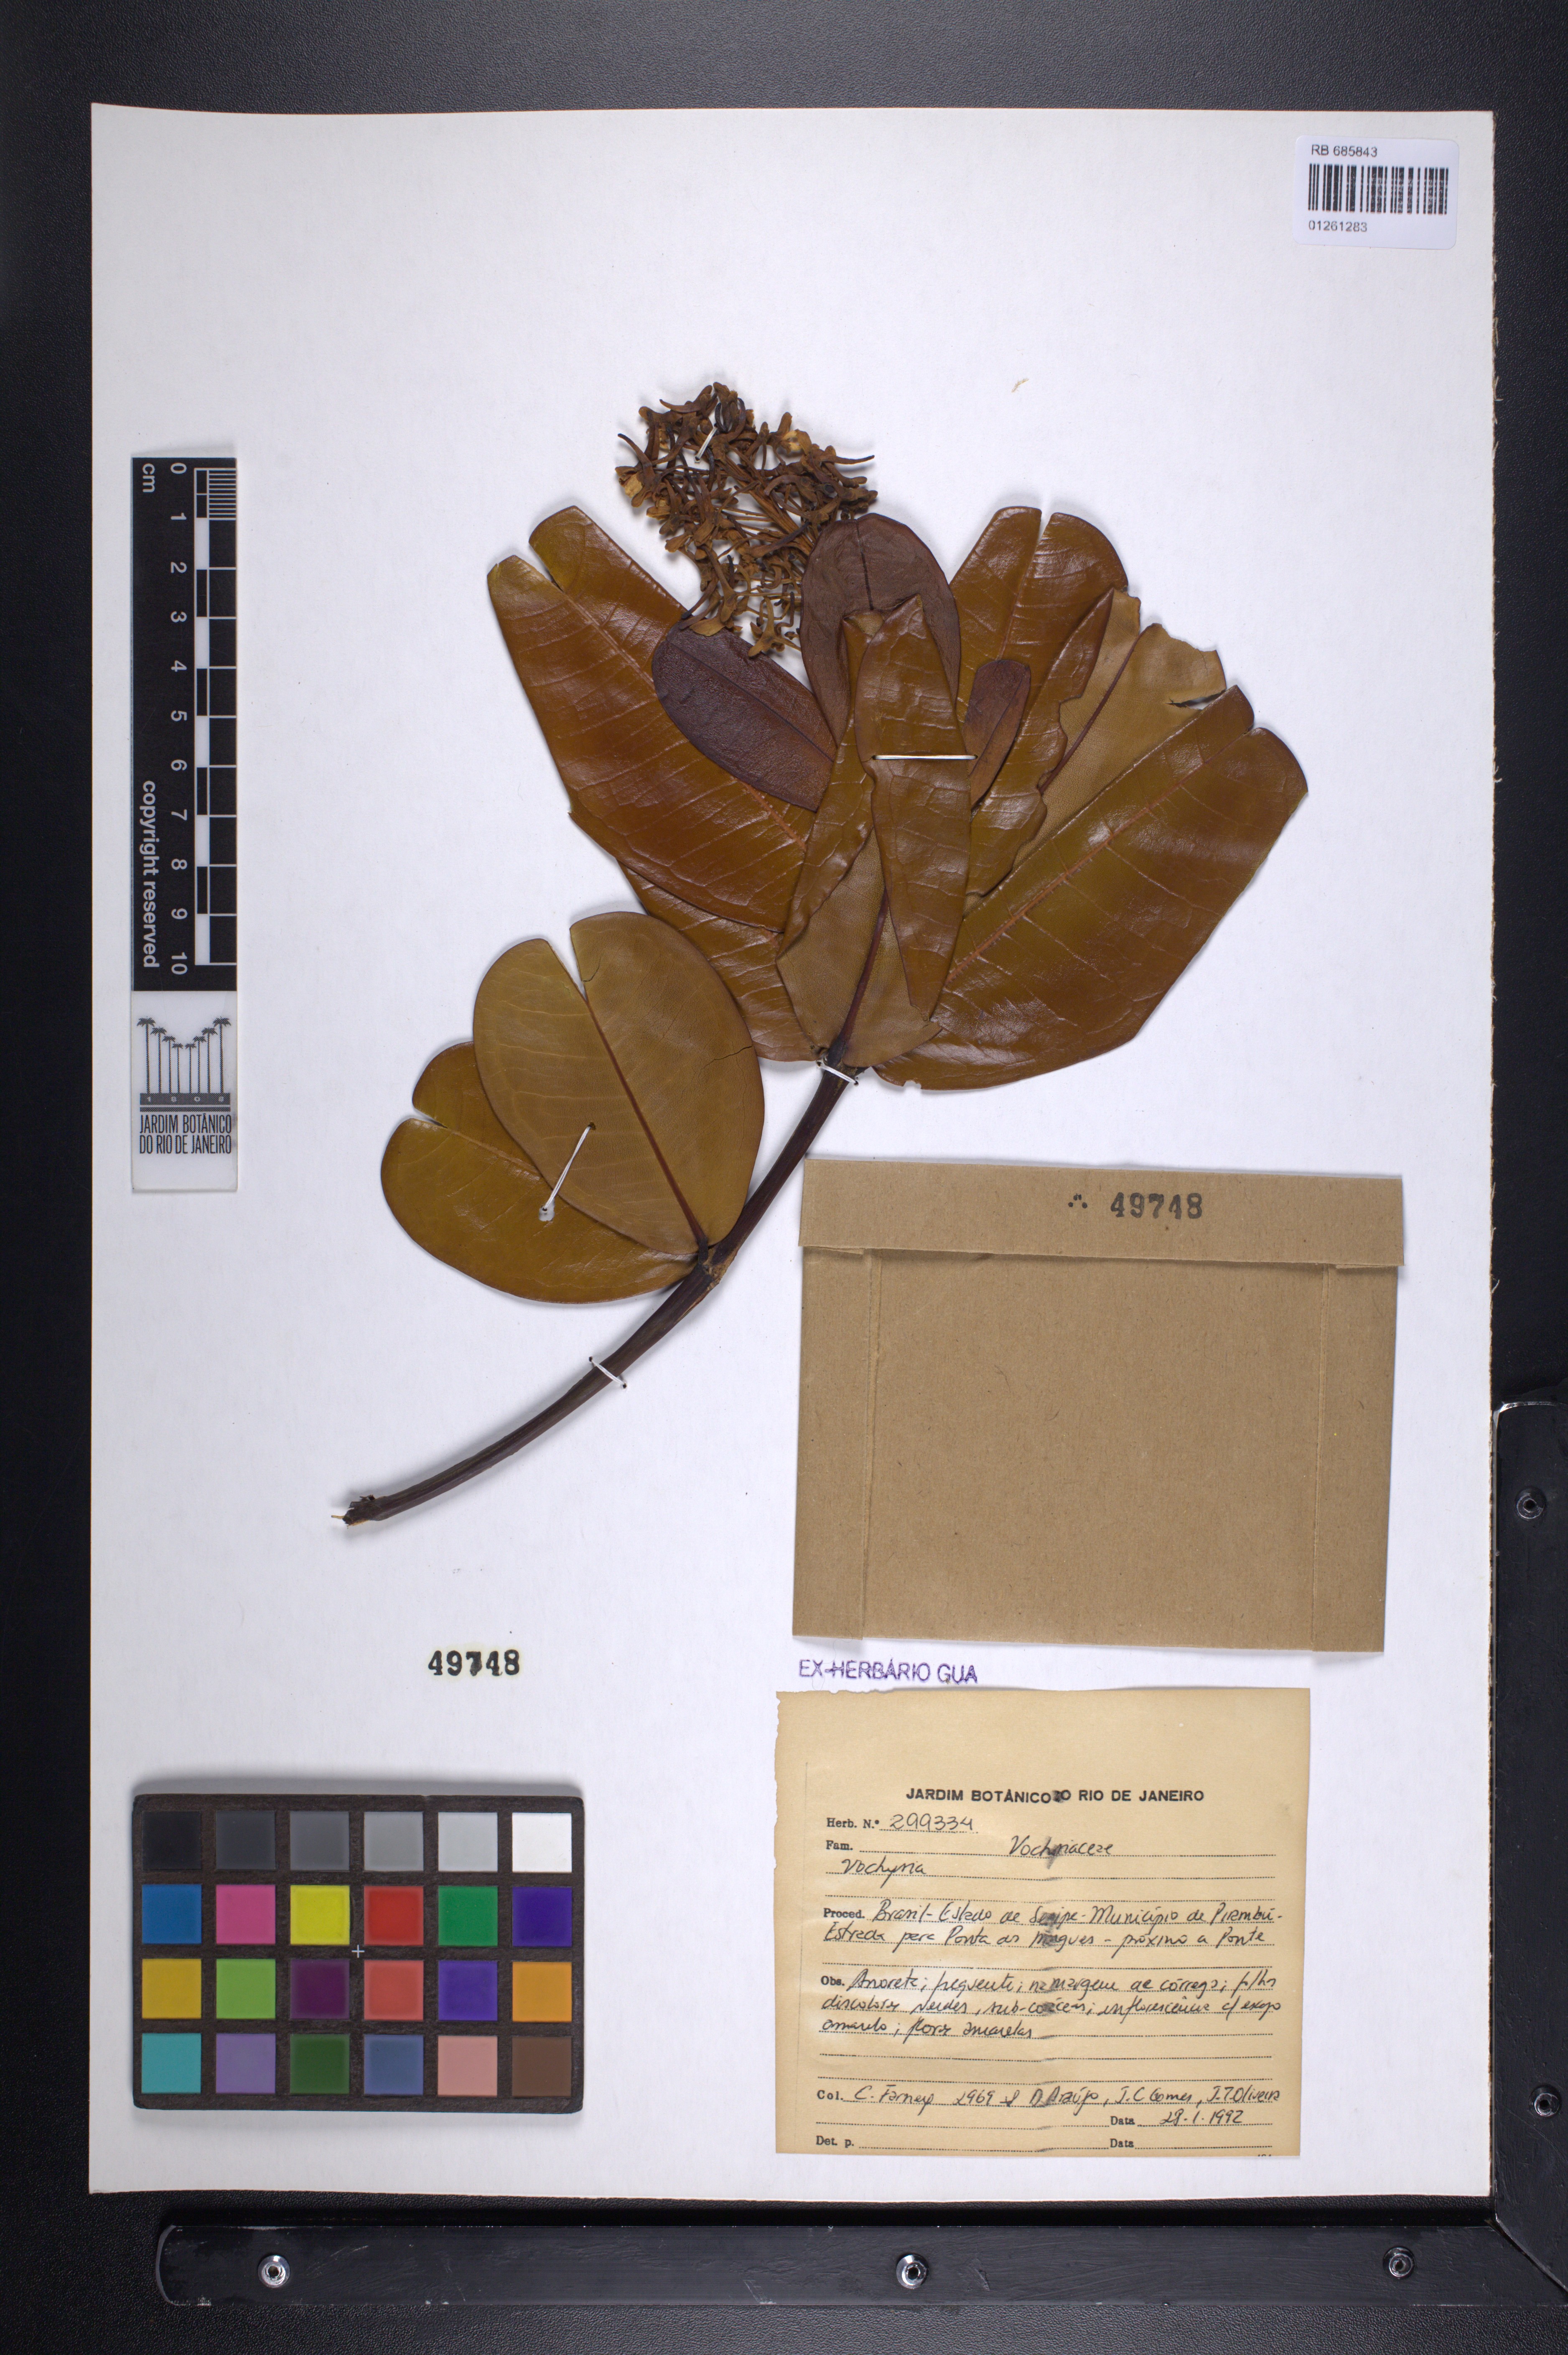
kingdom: Plantae
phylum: Tracheophyta
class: Magnoliopsida
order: Myrtales
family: Vochysiaceae
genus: Vochysia
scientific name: Vochysia
